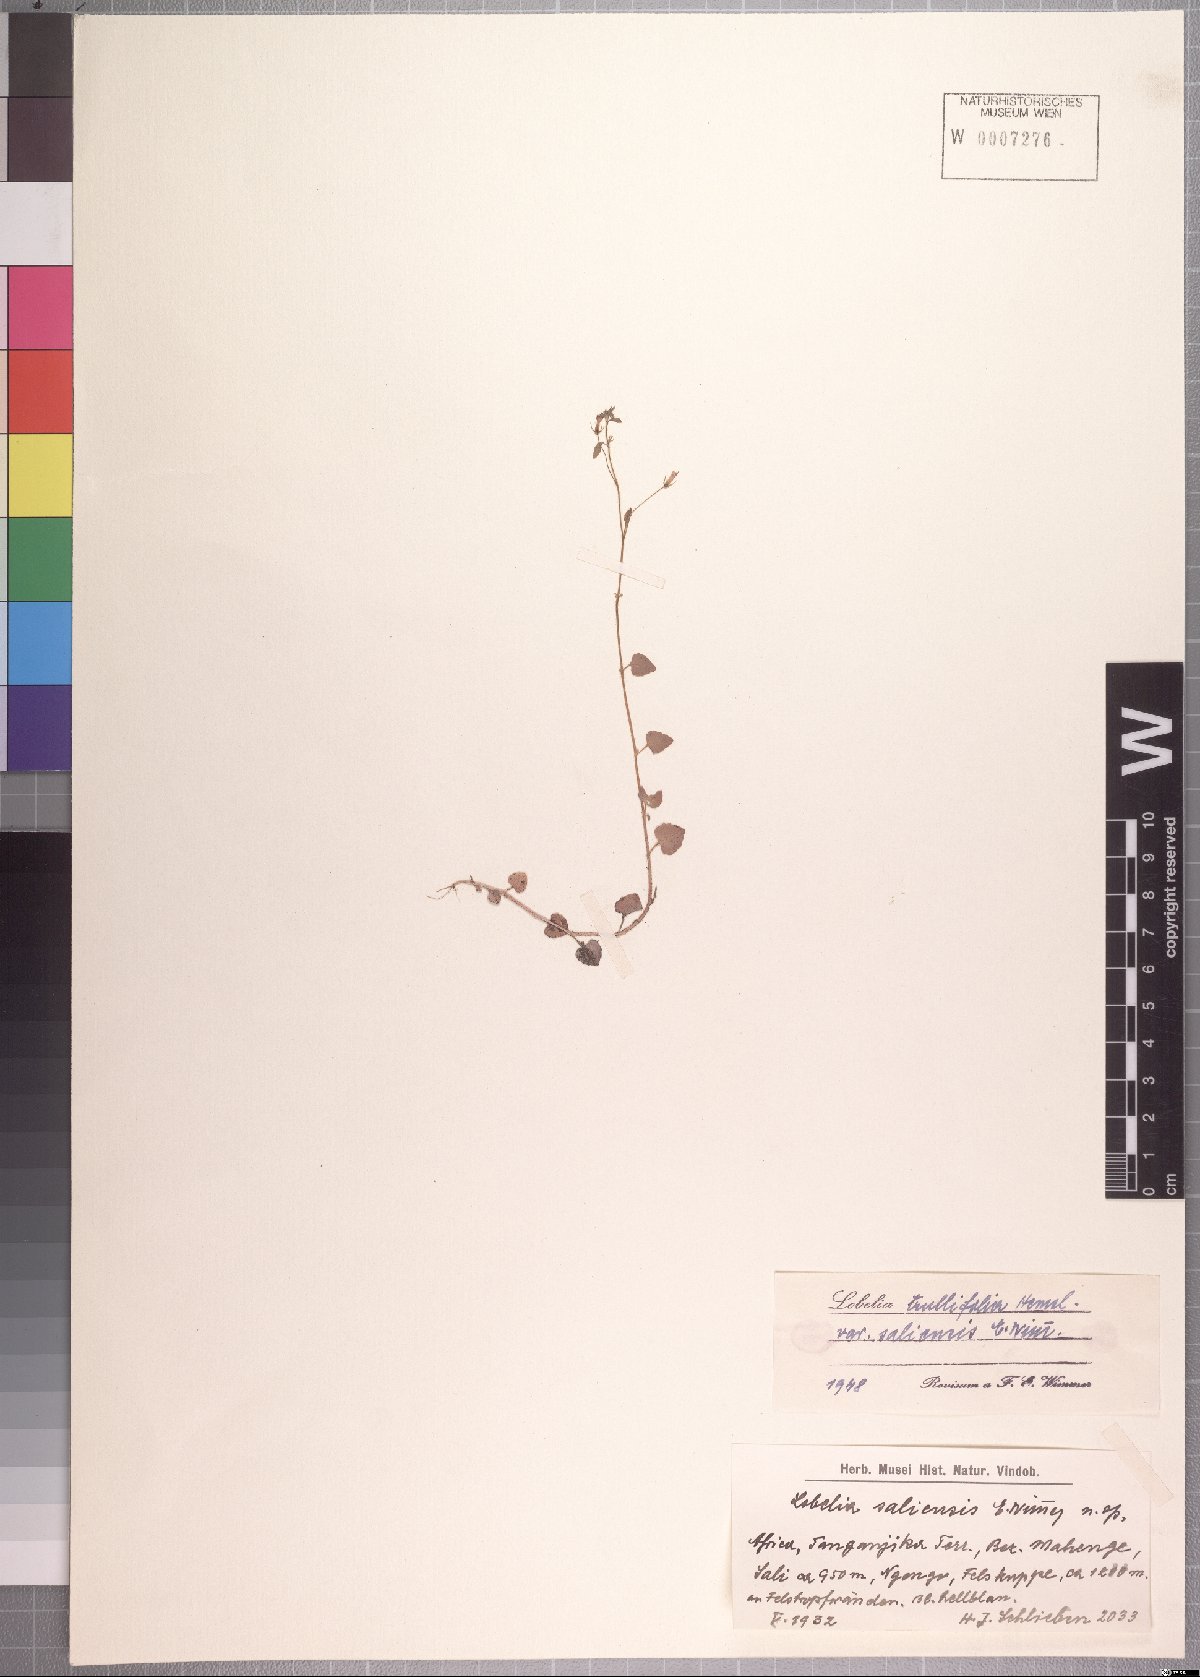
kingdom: Plantae
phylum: Tracheophyta
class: Magnoliopsida
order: Asterales
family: Campanulaceae
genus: Lobelia
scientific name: Lobelia trullifolia
